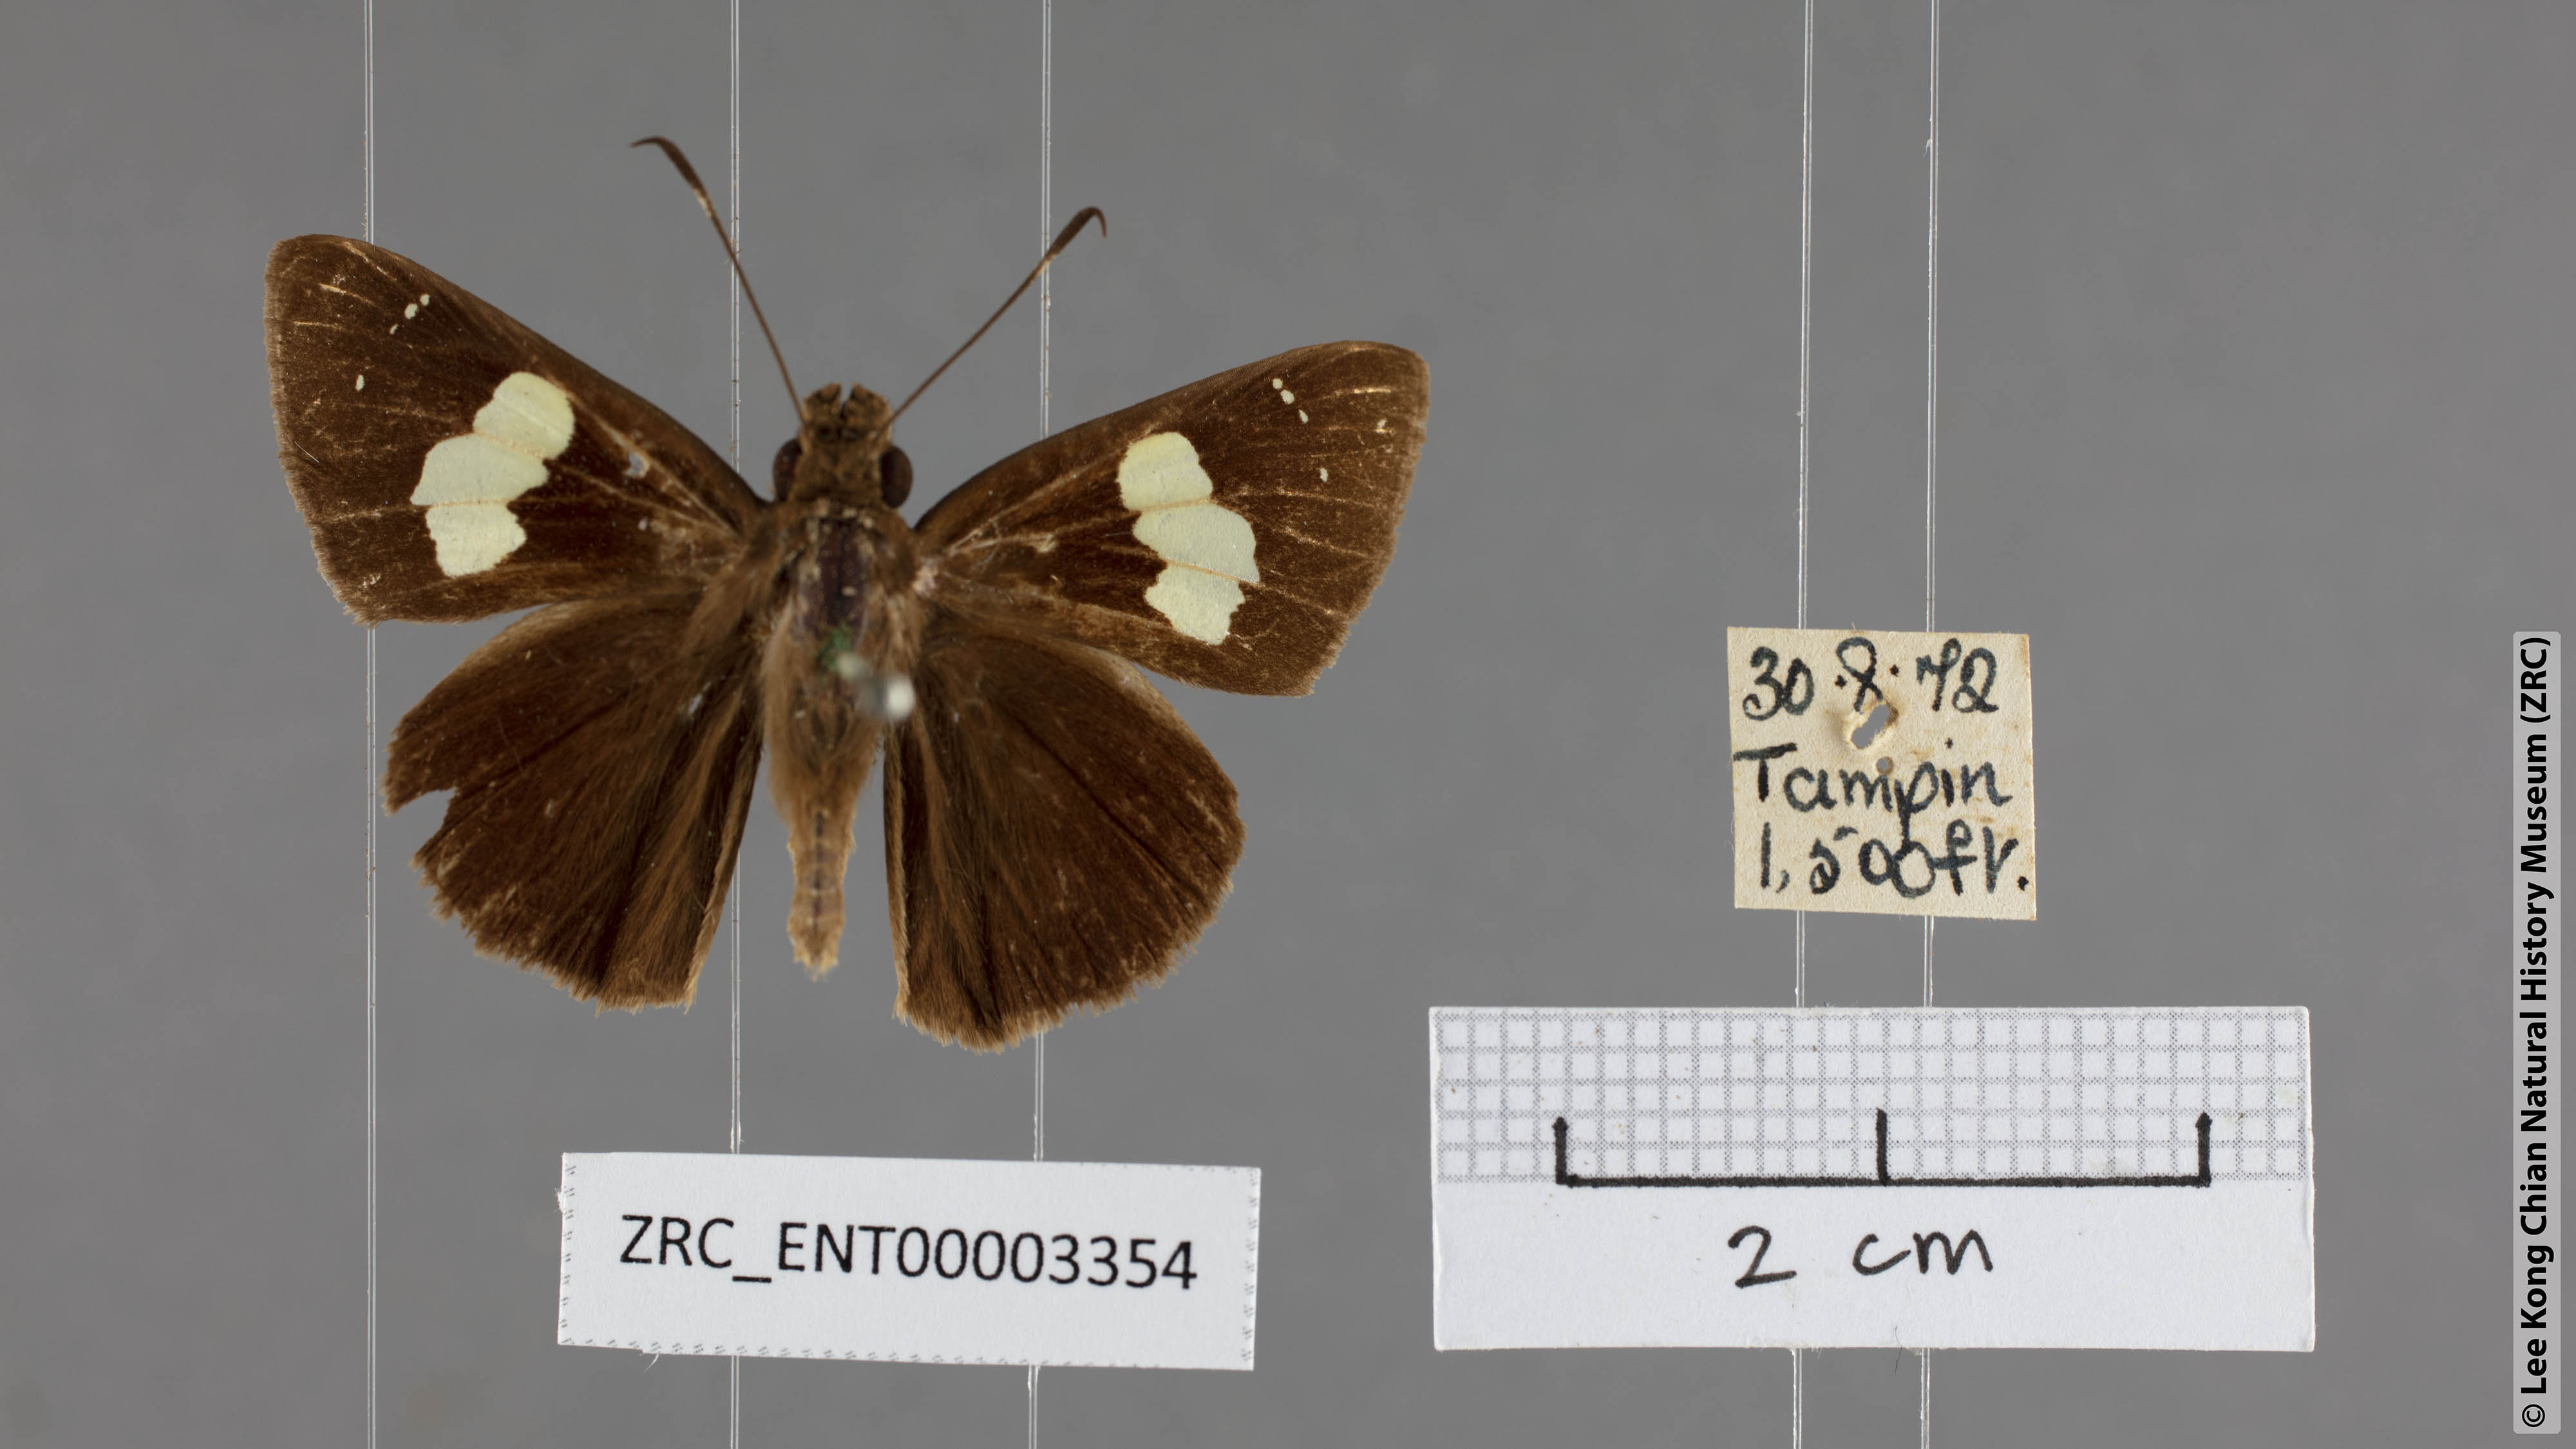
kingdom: Animalia
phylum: Arthropoda
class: Insecta
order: Lepidoptera
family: Hesperiidae
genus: Notocrypta
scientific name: Notocrypta curvifascia
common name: Restricted demon
